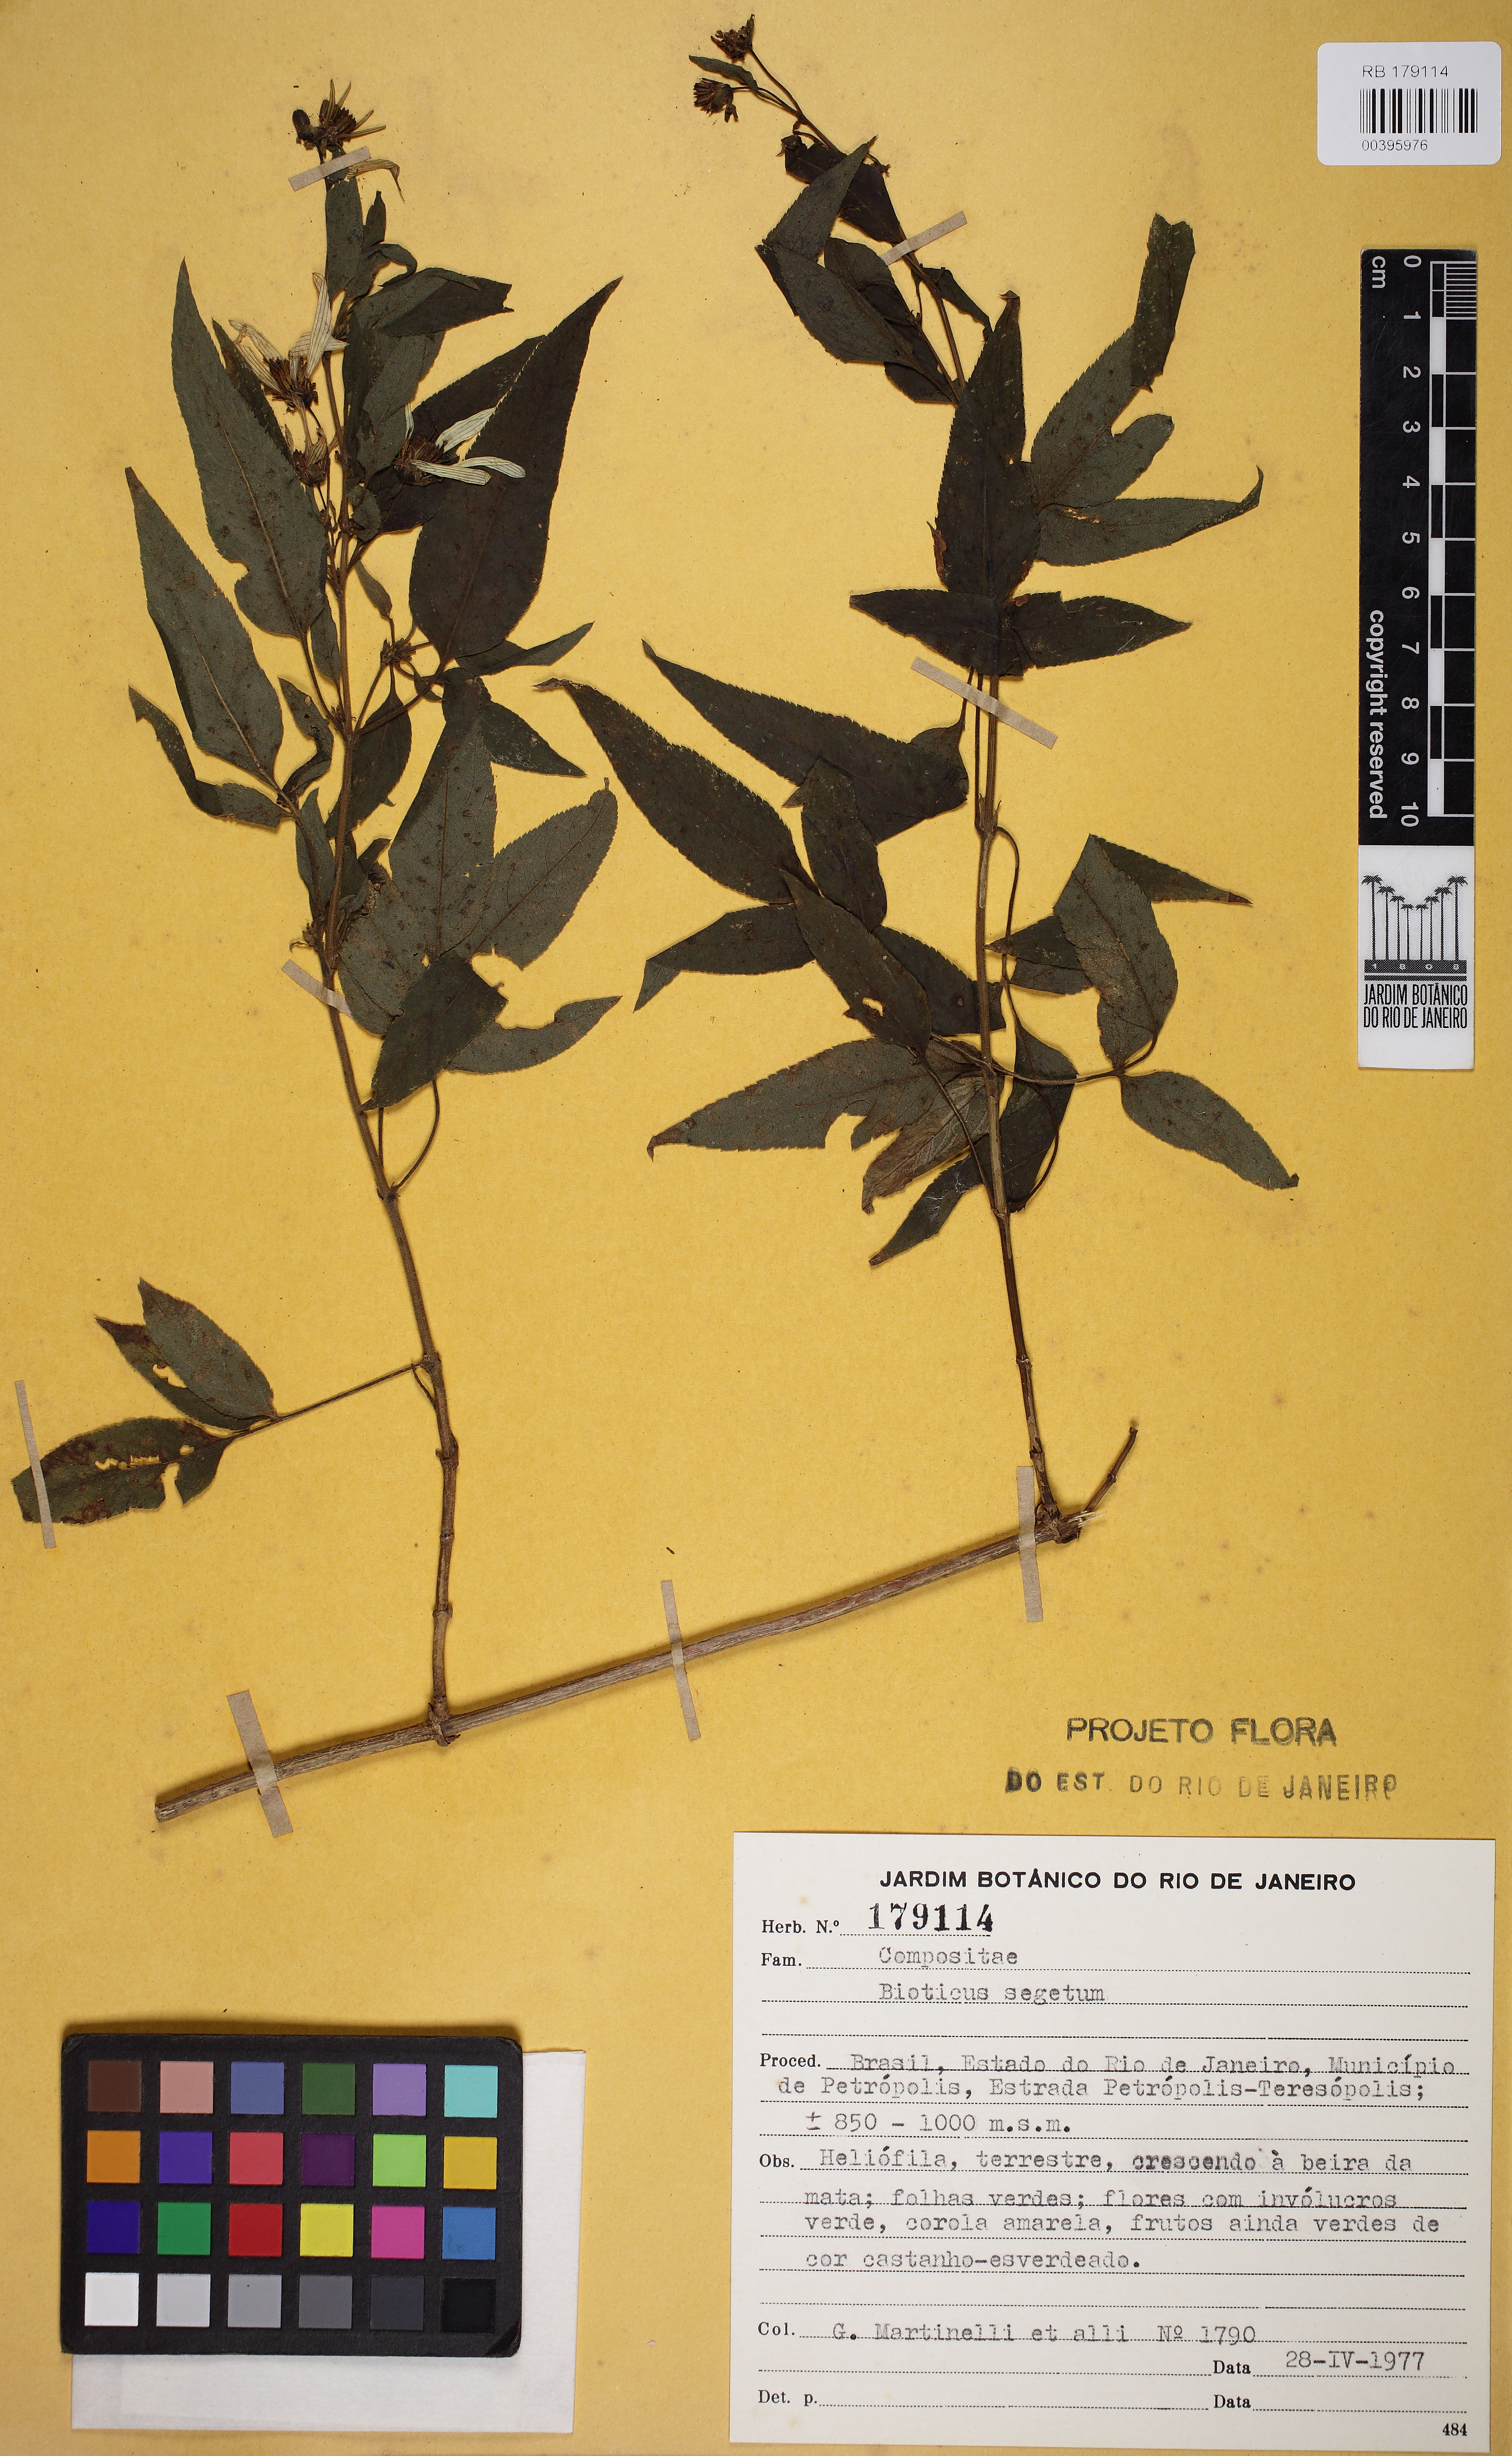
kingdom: Plantae
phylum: Tracheophyta
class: Magnoliopsida
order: Asterales
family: Asteraceae
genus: Bidens
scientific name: Bidens segetum
